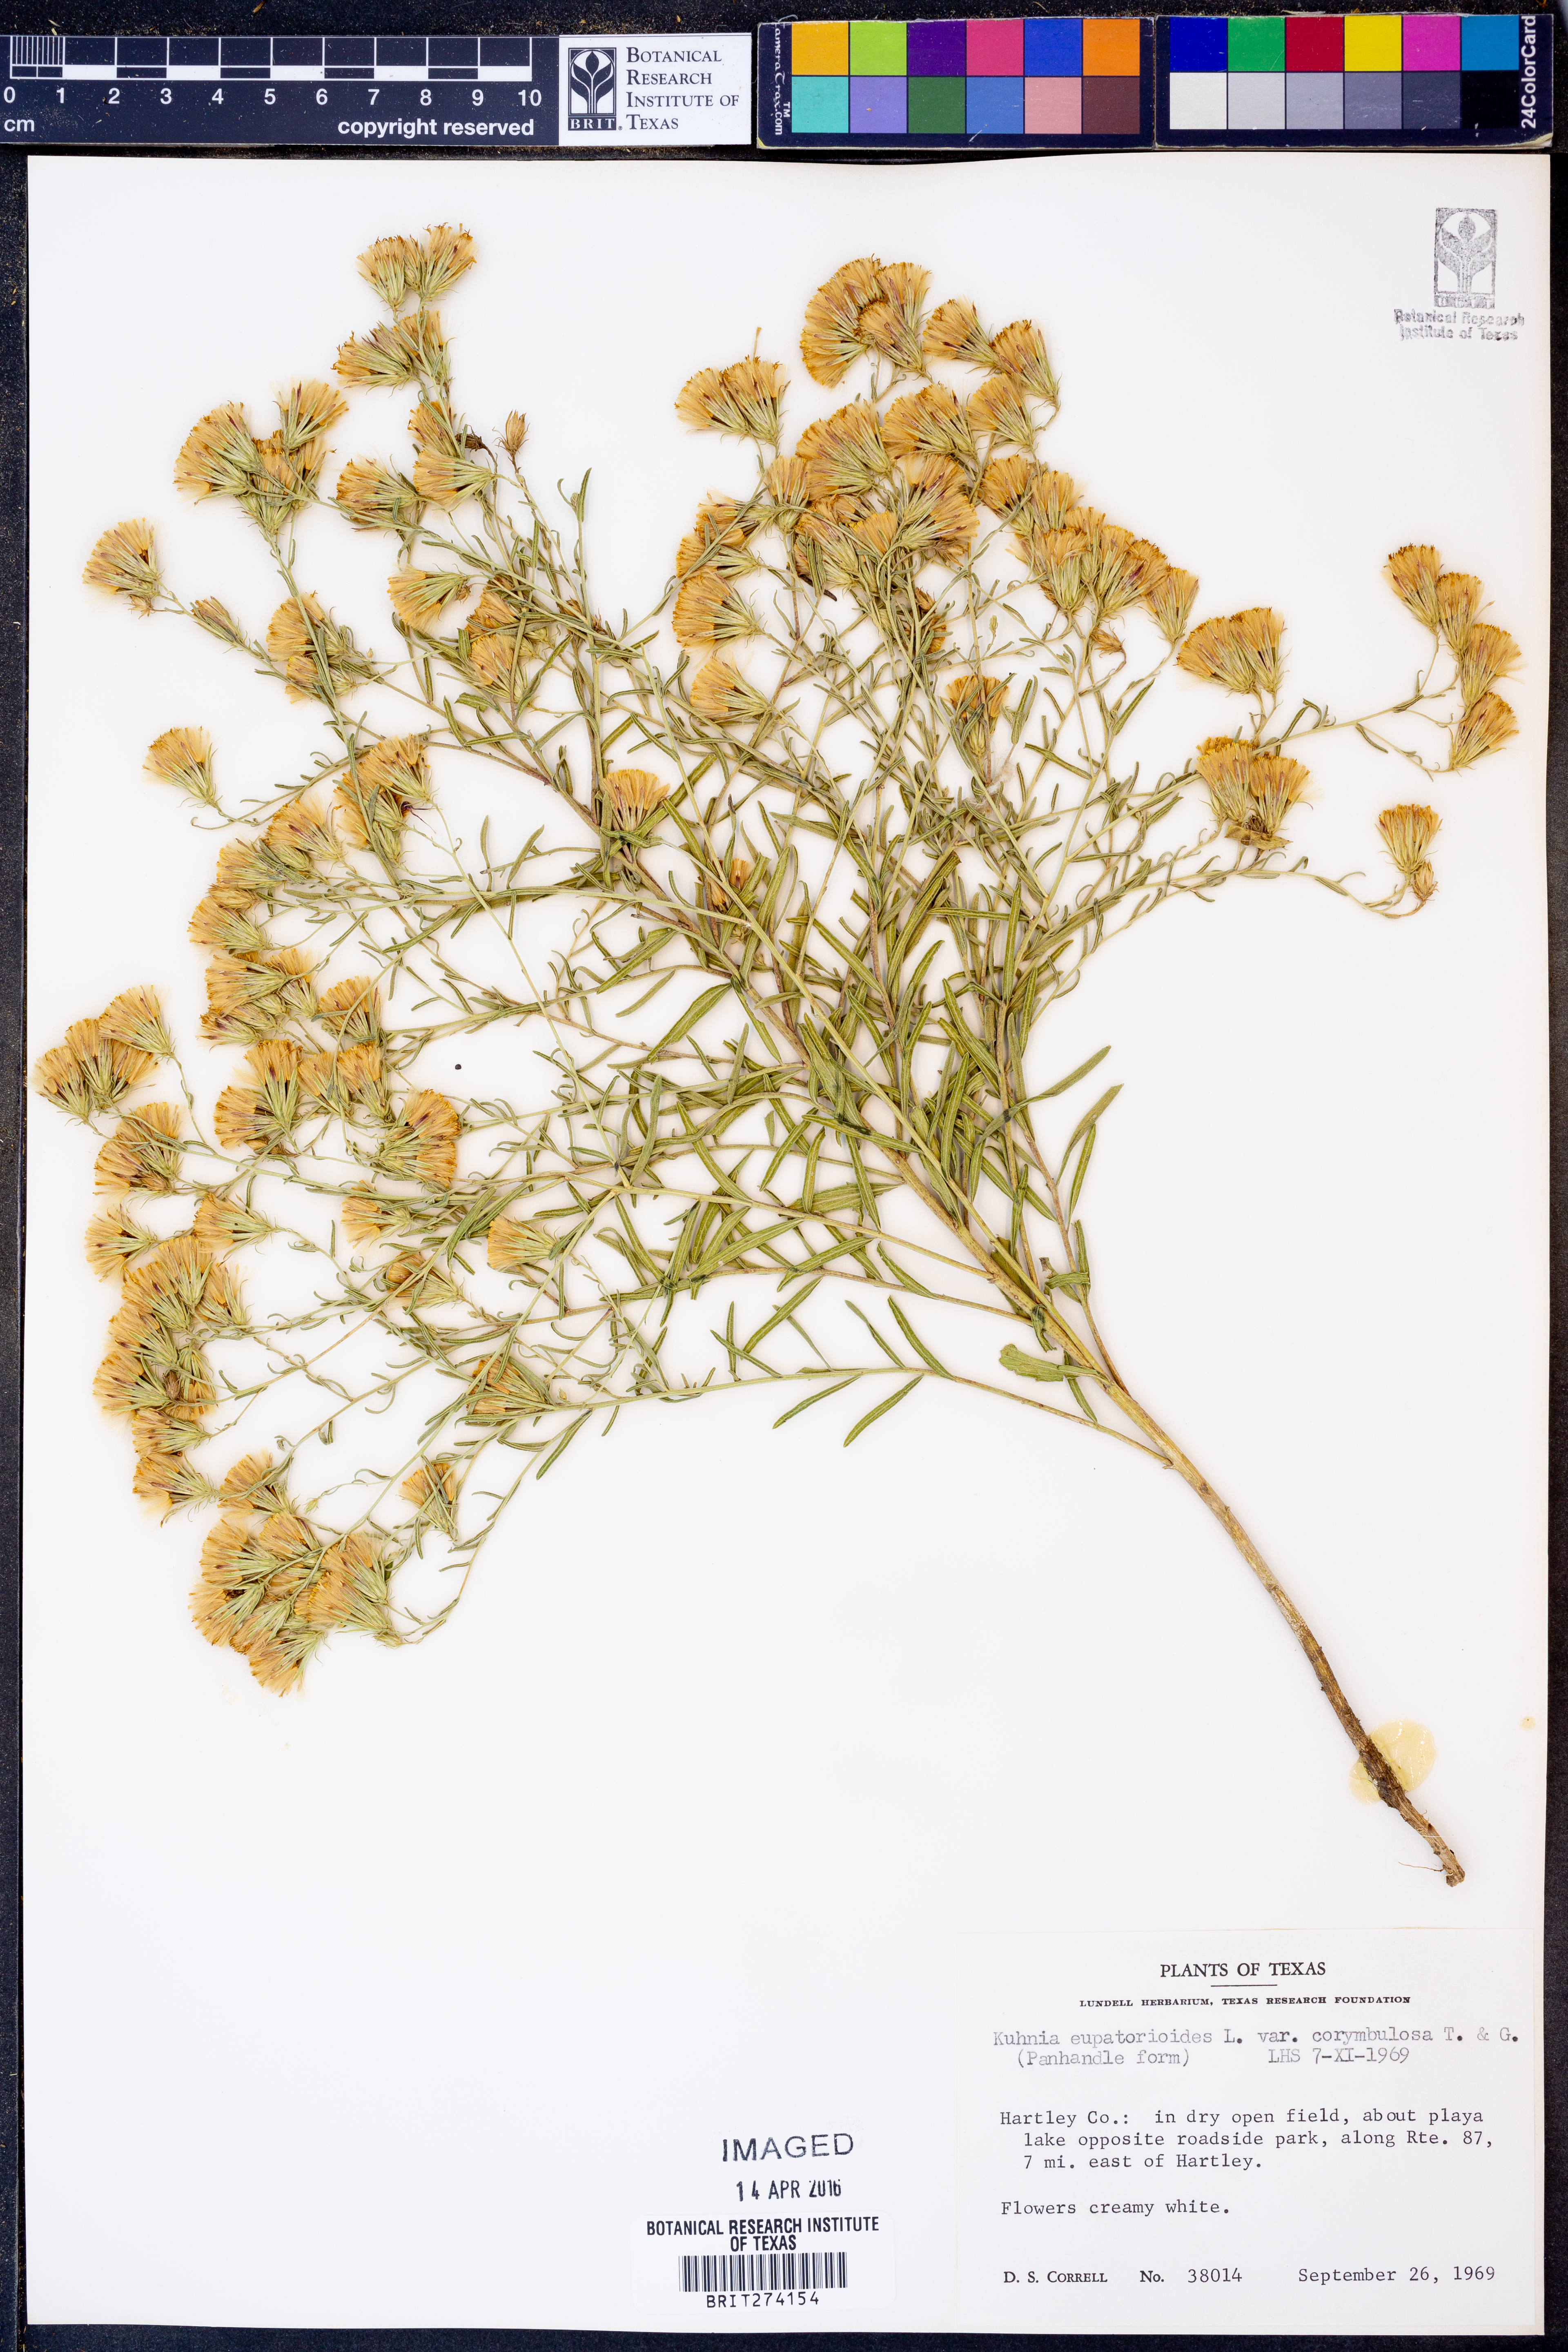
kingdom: Plantae
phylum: Tracheophyta
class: Magnoliopsida
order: Asterales
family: Asteraceae
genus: Brickellia
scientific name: Brickellia suaveolens
